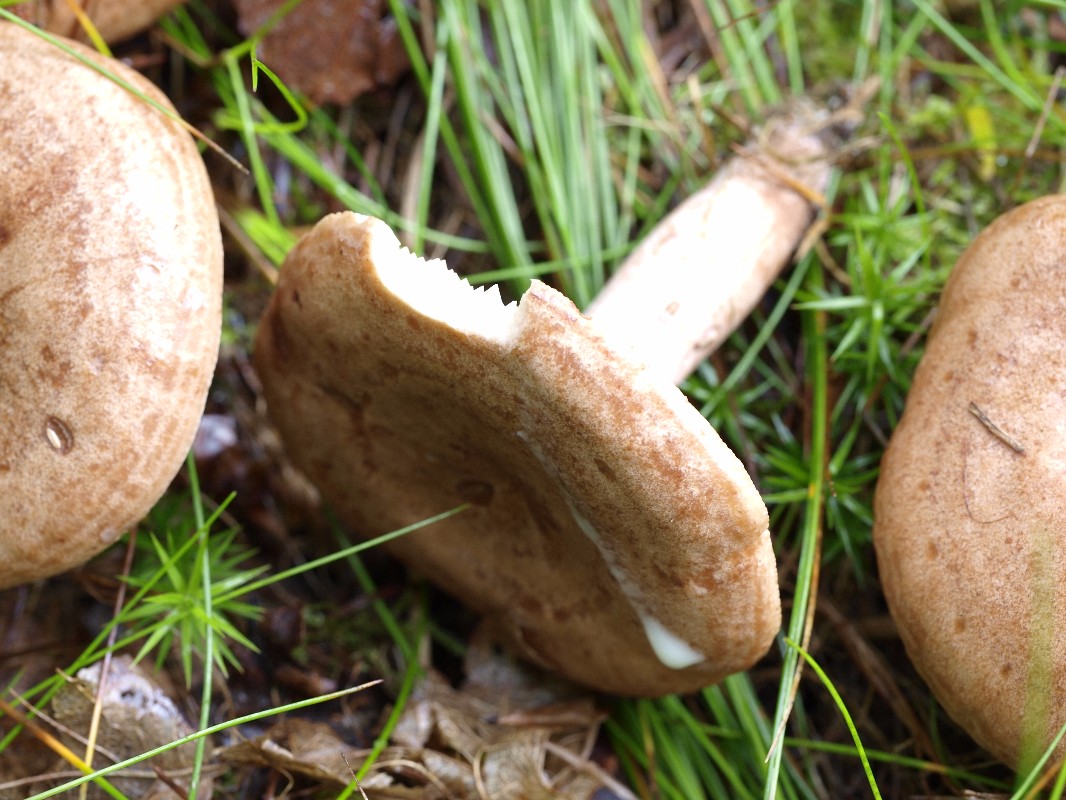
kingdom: Fungi
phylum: Basidiomycota
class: Agaricomycetes
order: Russulales
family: Russulaceae
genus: Lactarius
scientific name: Lactarius quietus
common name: ege-mælkehat
